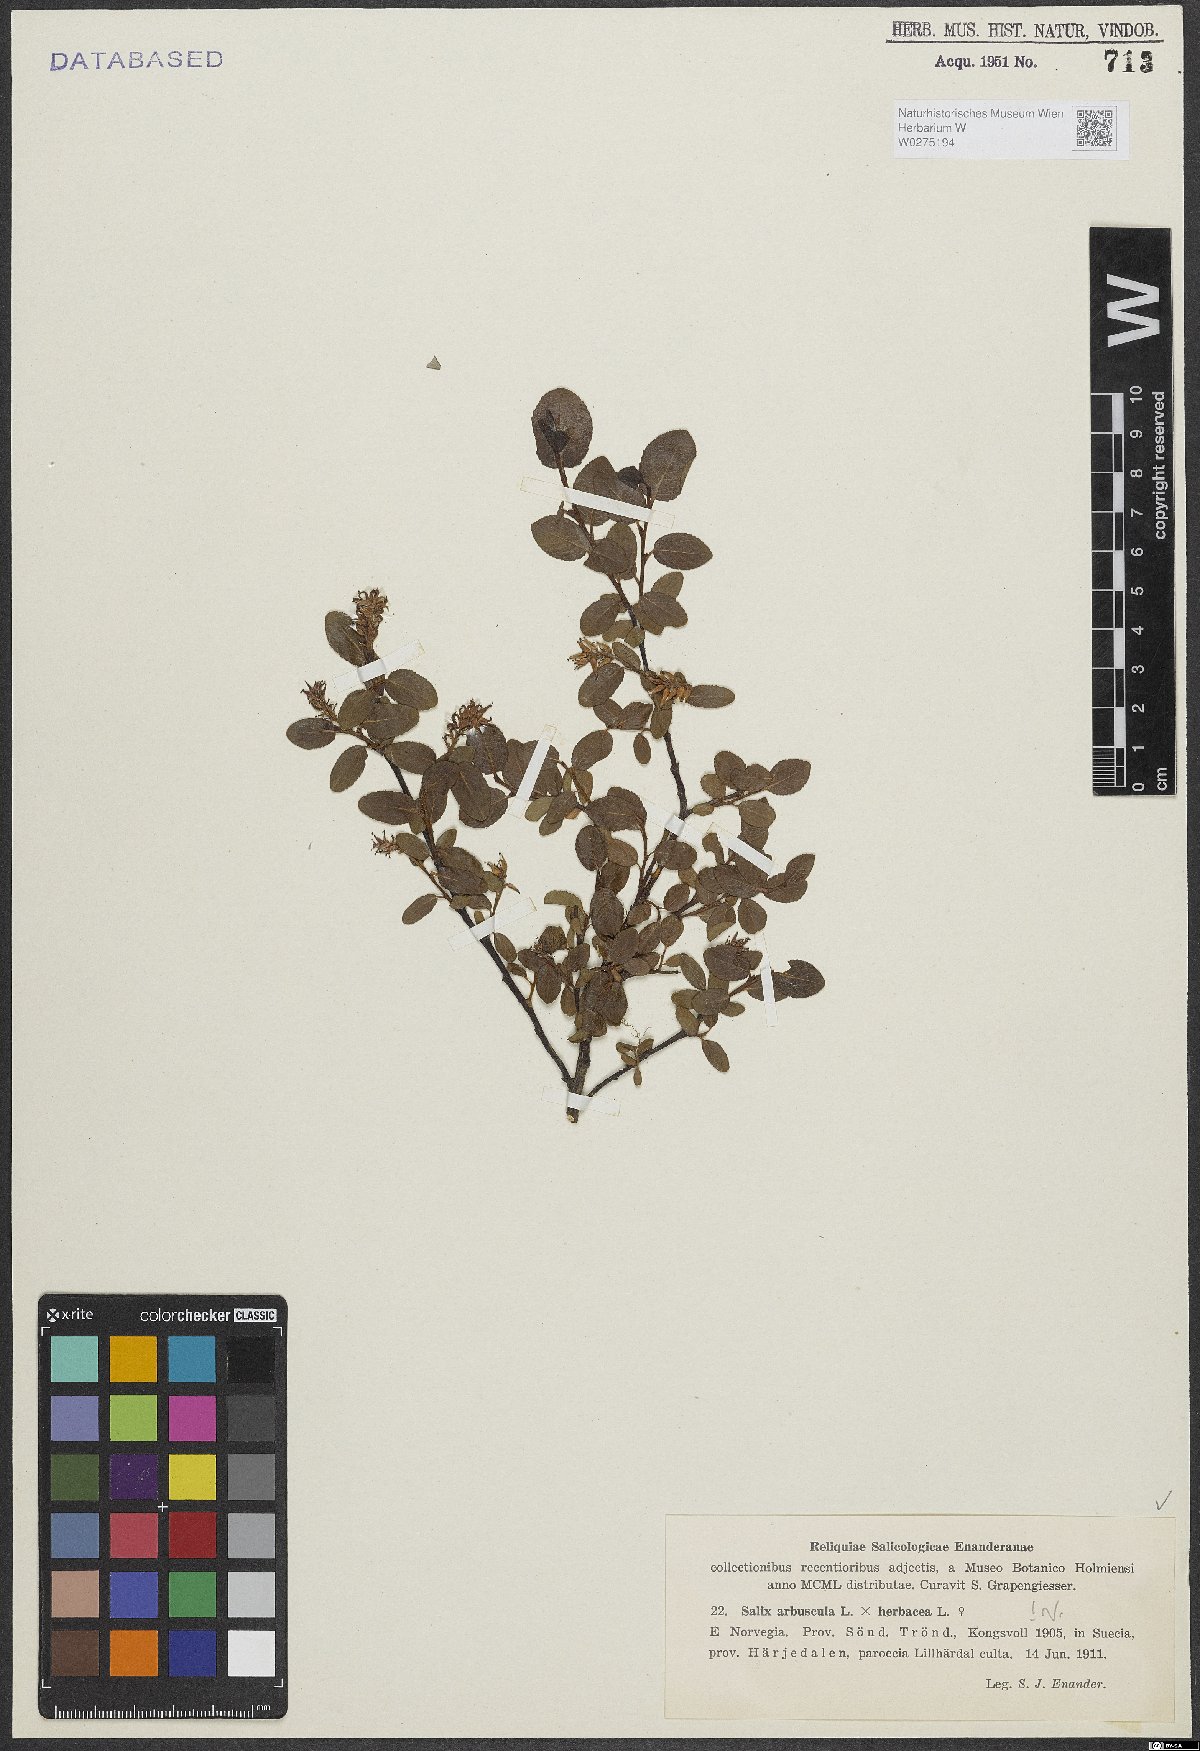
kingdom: Plantae
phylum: Tracheophyta
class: Magnoliopsida
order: Malpighiales
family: Salicaceae
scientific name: Salicaceae
